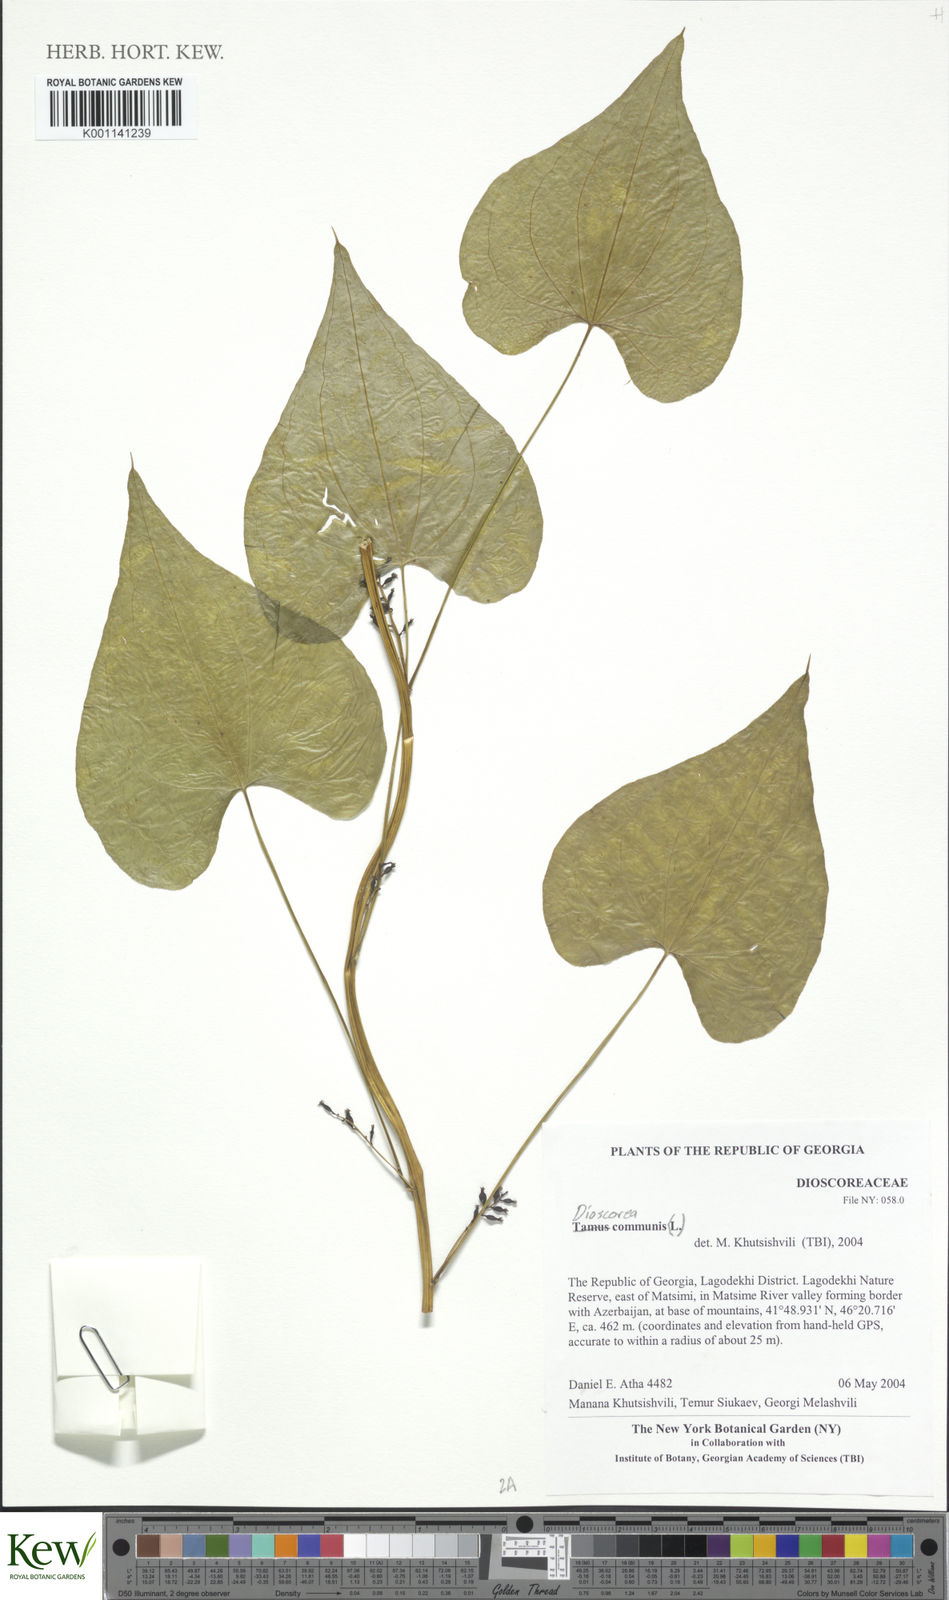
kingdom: Plantae
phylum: Tracheophyta
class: Liliopsida
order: Dioscoreales
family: Dioscoreaceae
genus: Dioscorea
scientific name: Dioscorea communis
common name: Black-bindweed
